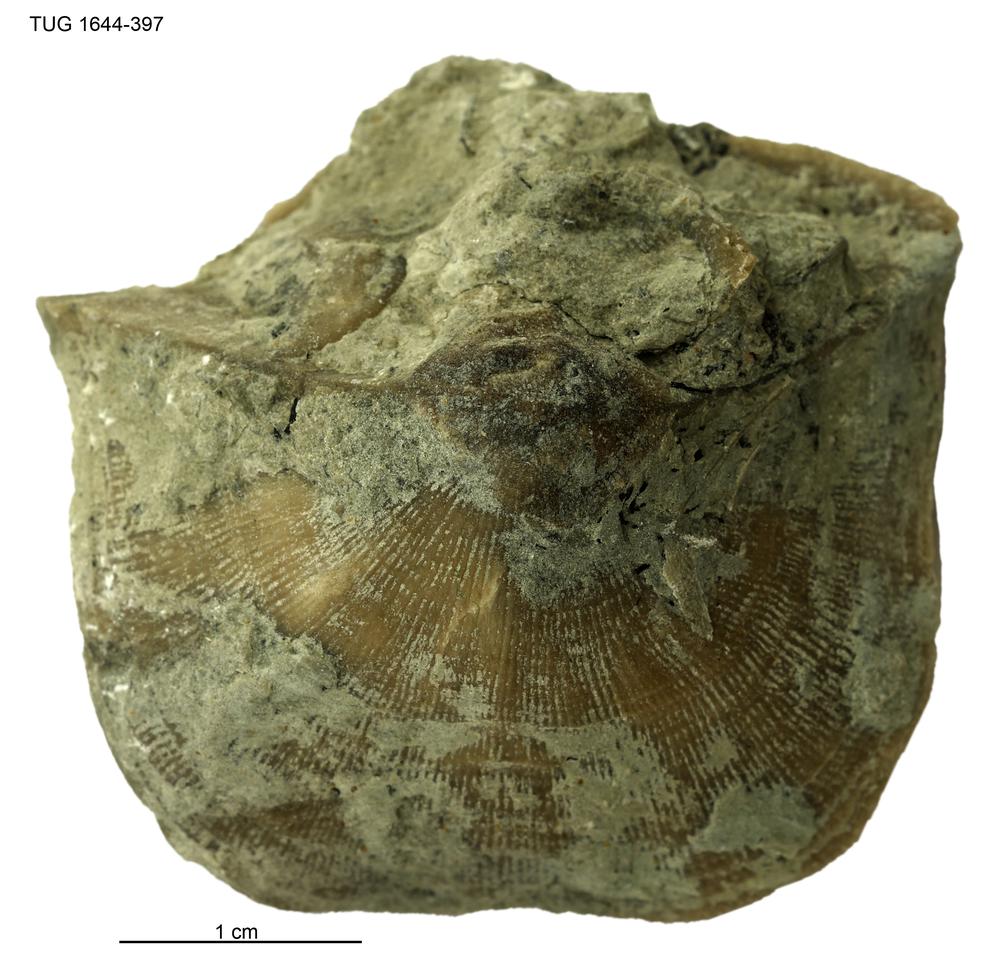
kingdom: Animalia
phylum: Brachiopoda
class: Rhynchonellata
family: Clitambonitidae
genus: Clinambon
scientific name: Clinambon
